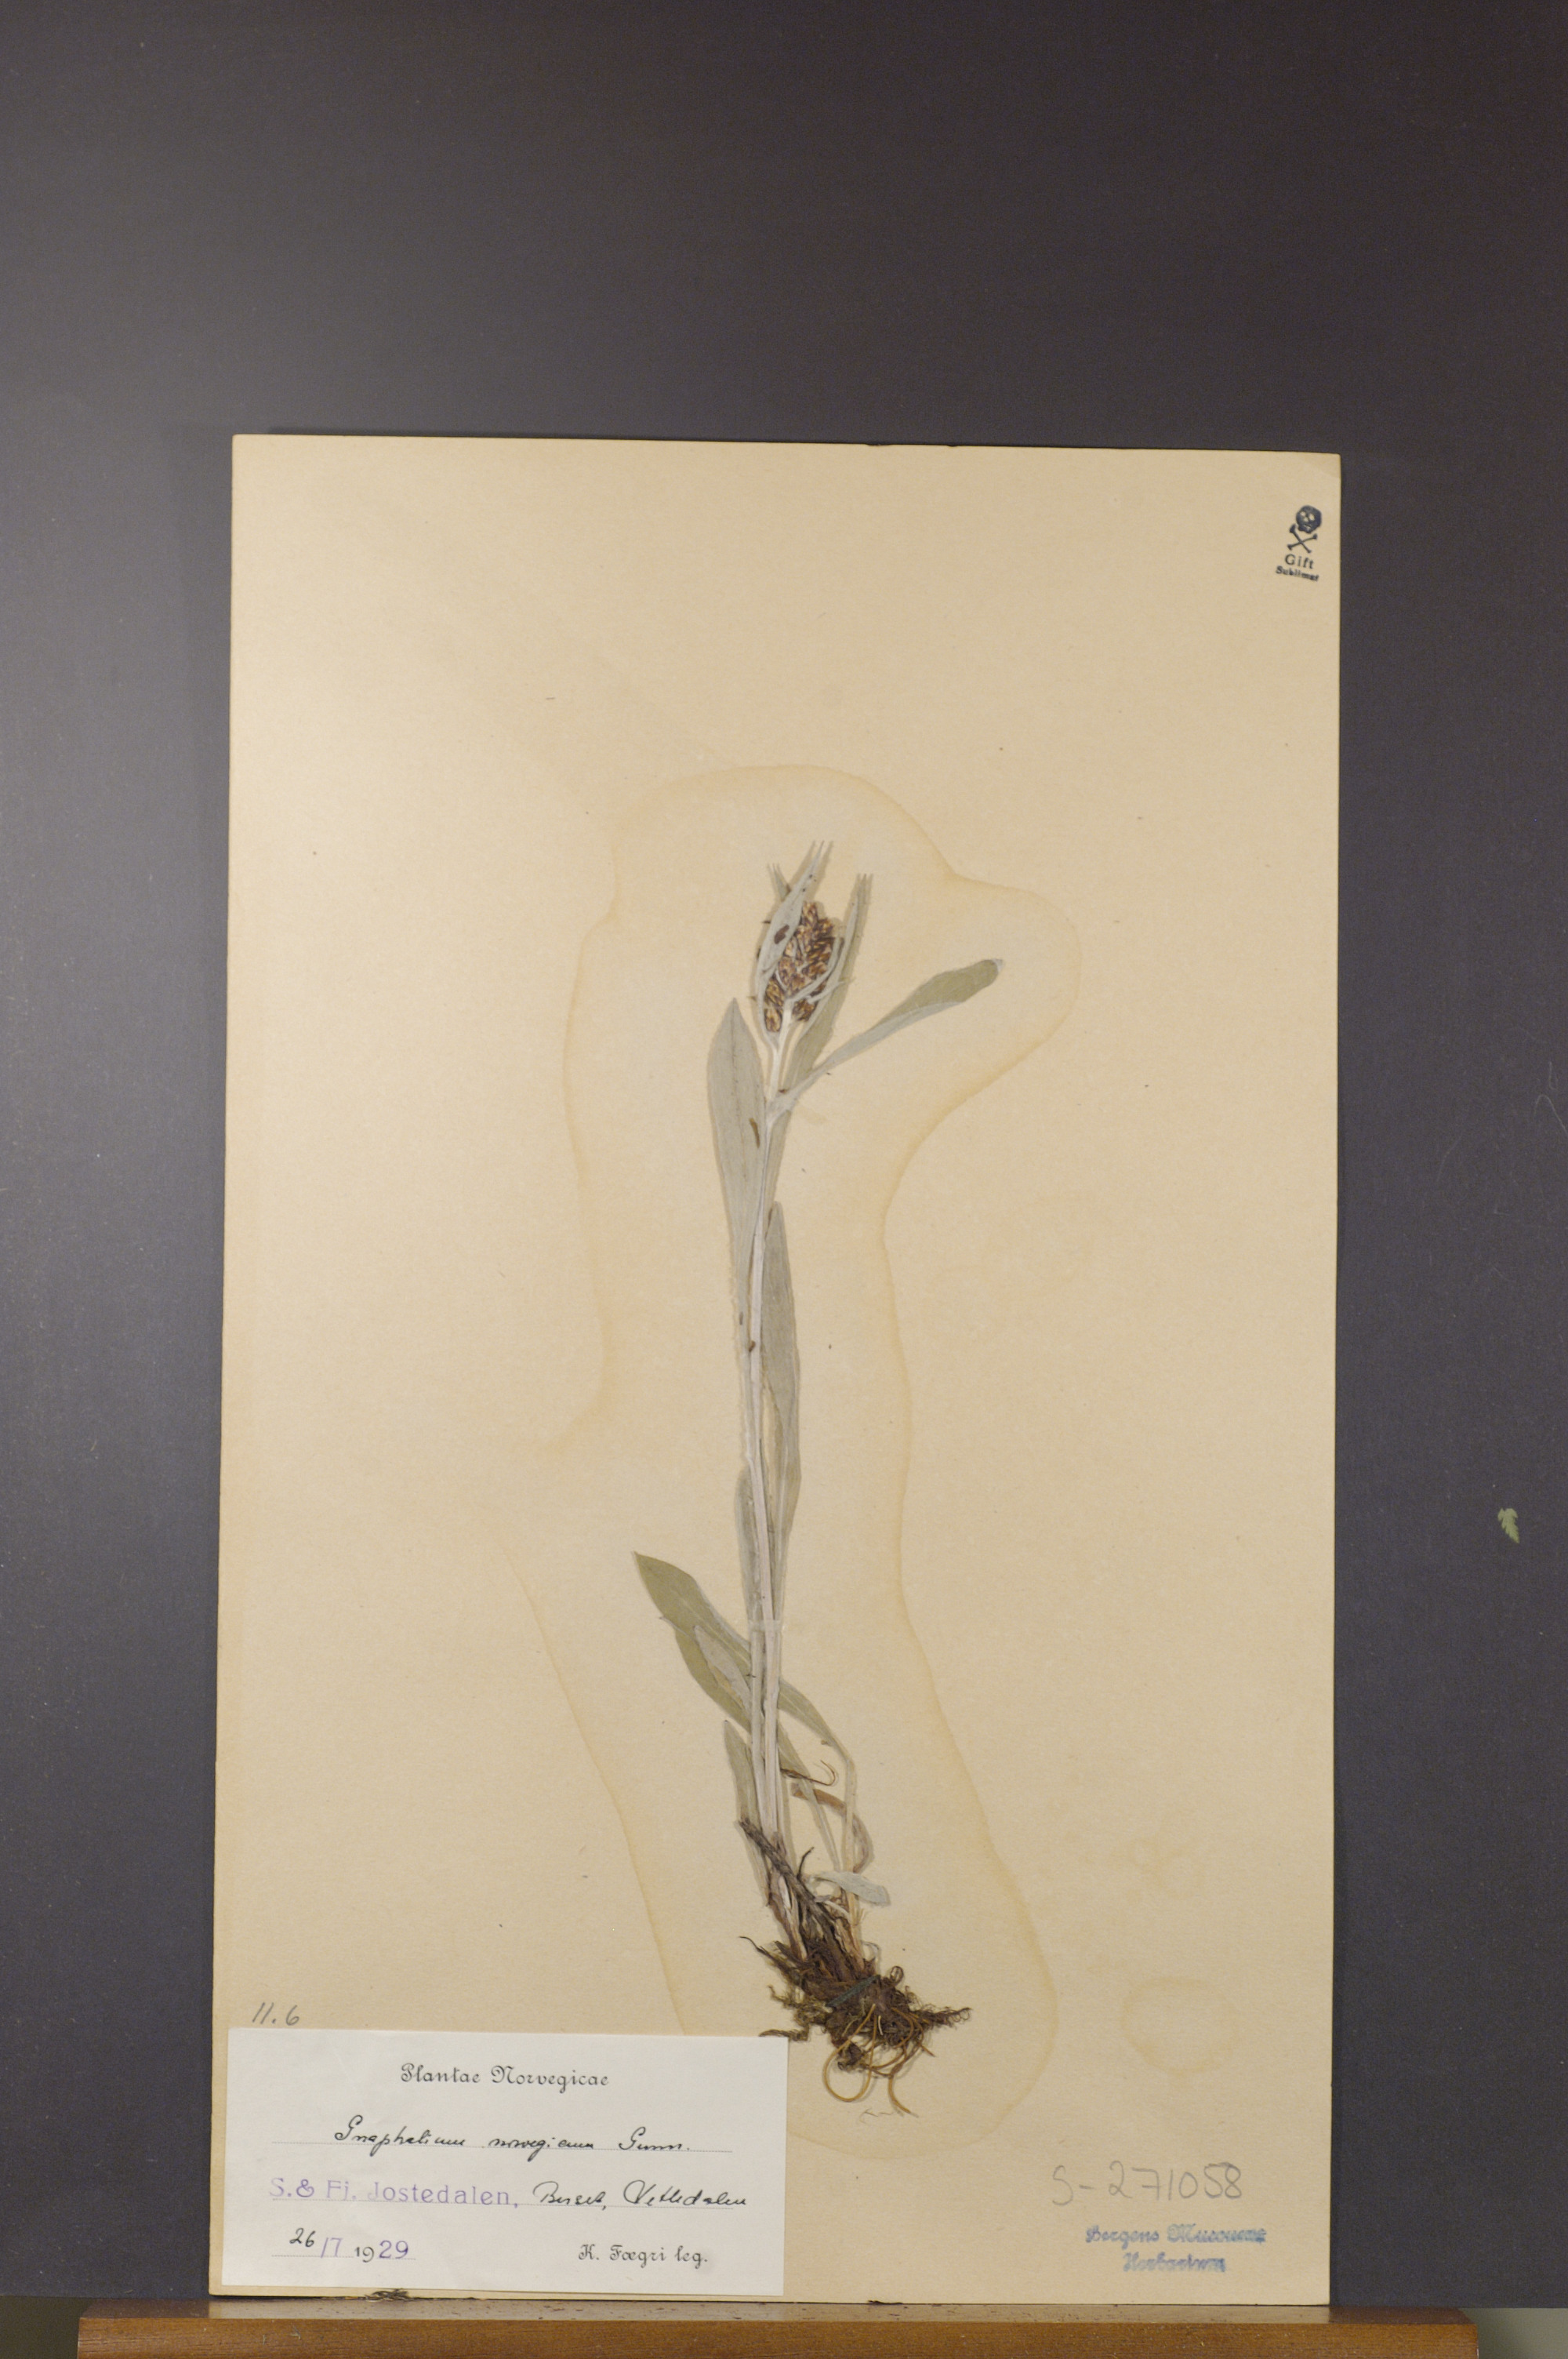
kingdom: Plantae
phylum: Tracheophyta
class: Magnoliopsida
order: Asterales
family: Asteraceae
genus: Omalotheca
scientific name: Omalotheca norvegica
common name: Norwegian arctic-cudweed
